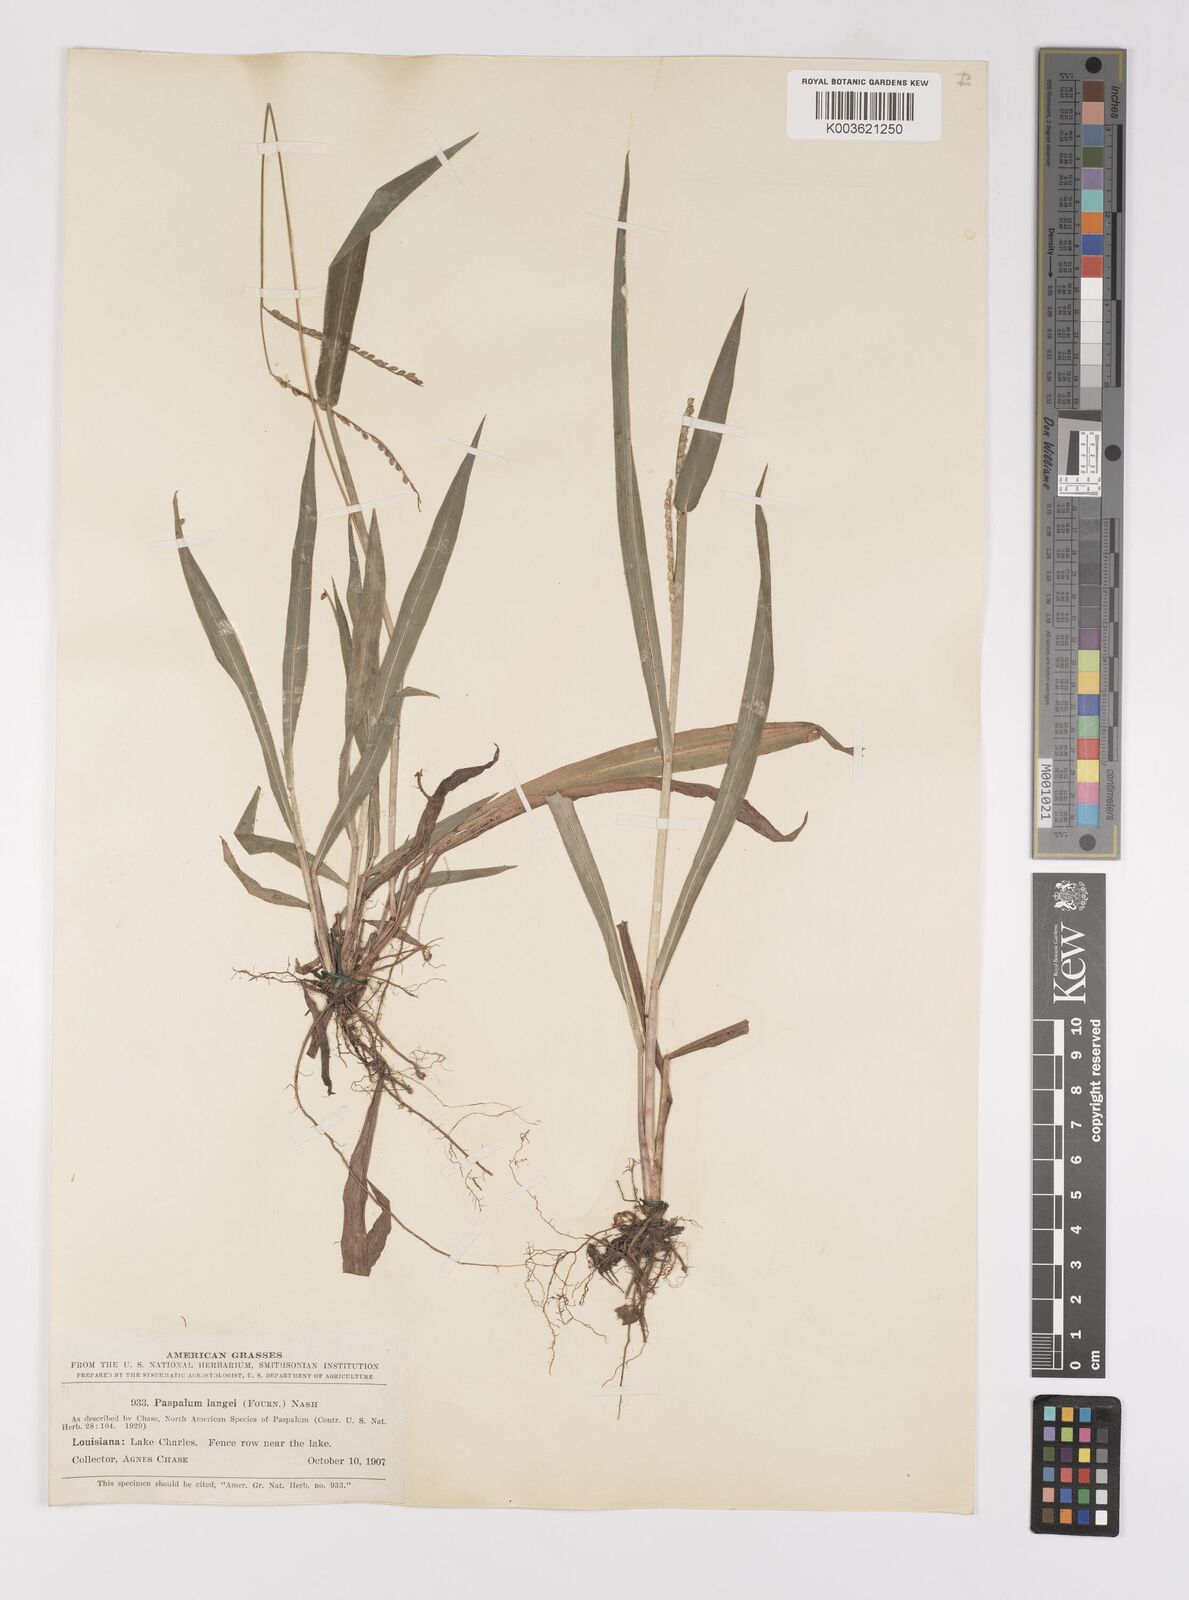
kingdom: Plantae
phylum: Tracheophyta
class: Liliopsida
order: Poales
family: Poaceae
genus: Paspalum
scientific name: Paspalum langei
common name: Rusty-seed paspalum
